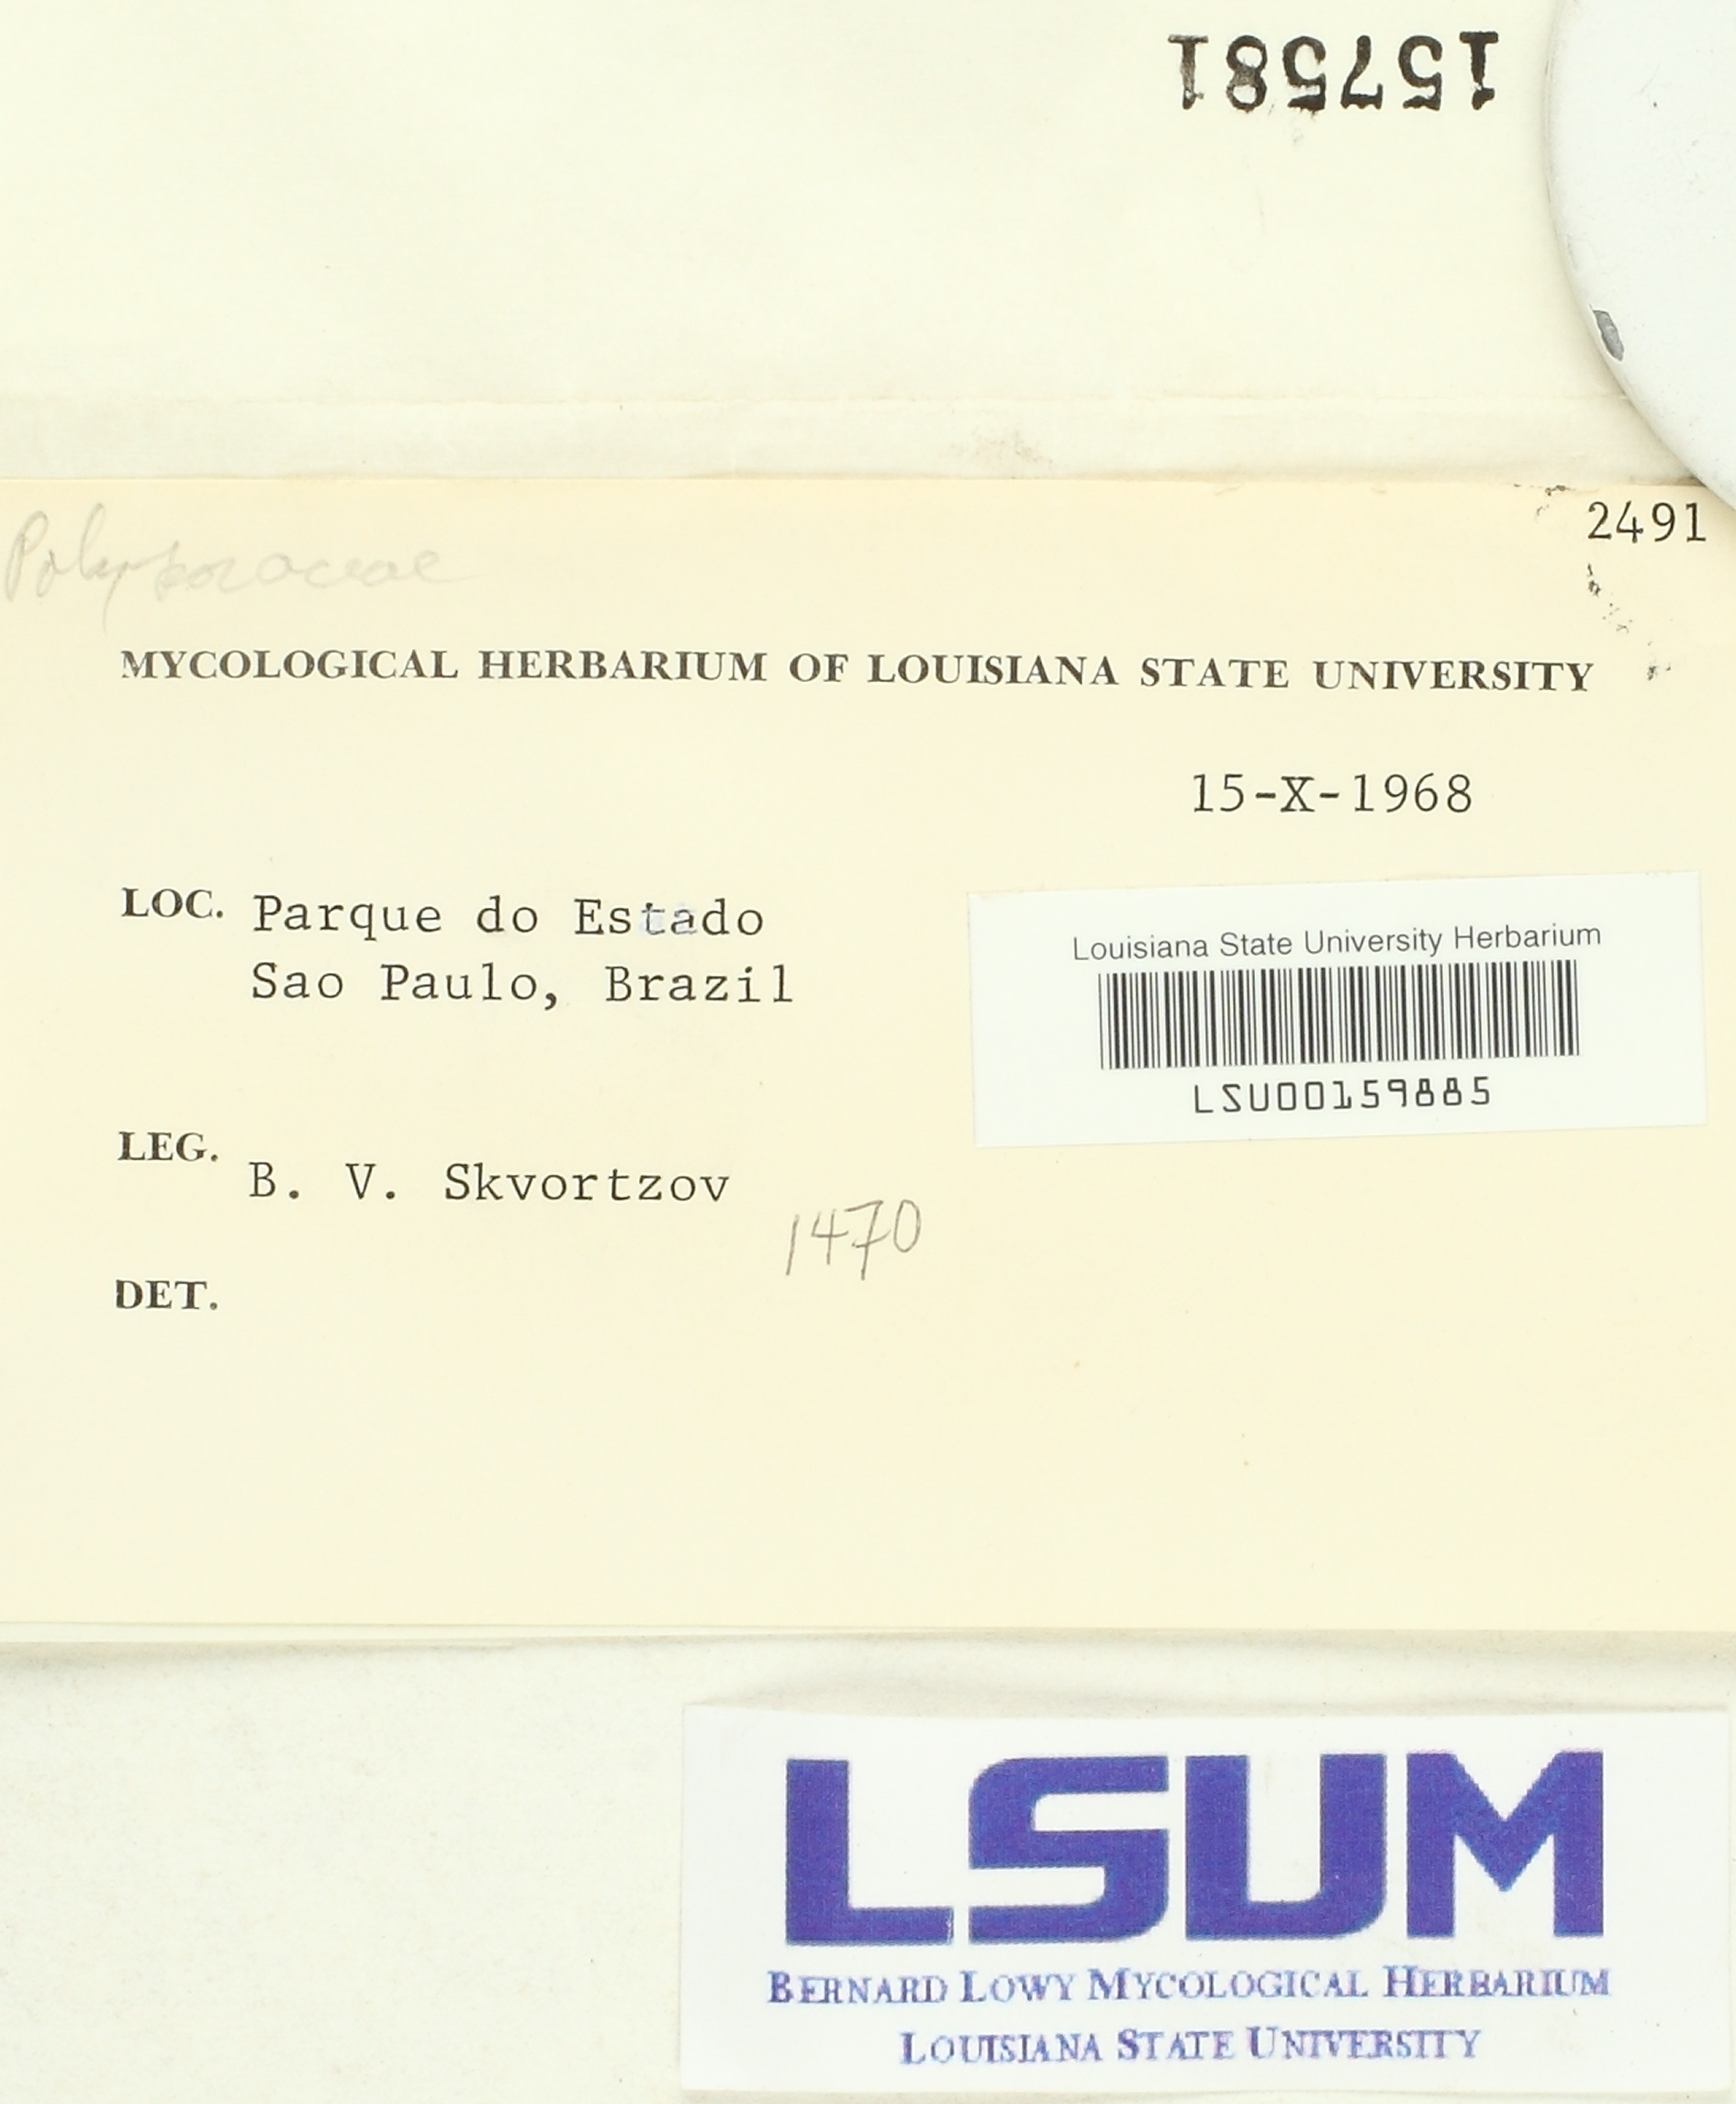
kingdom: Fungi
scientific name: Fungi
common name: Fungi
